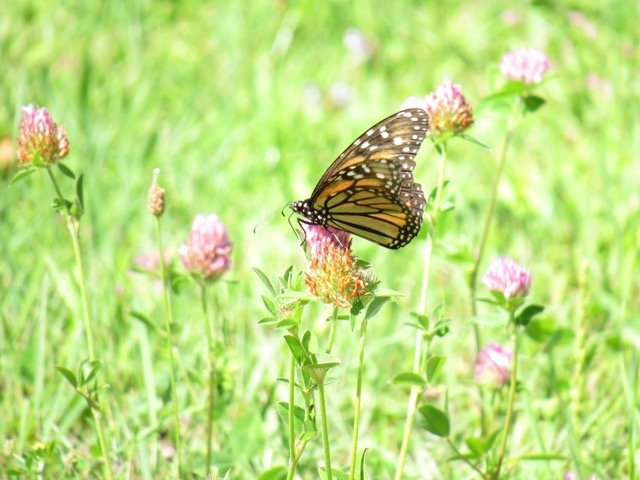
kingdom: Animalia
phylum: Arthropoda
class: Insecta
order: Lepidoptera
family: Nymphalidae
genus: Danaus
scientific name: Danaus plexippus
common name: Monarch
